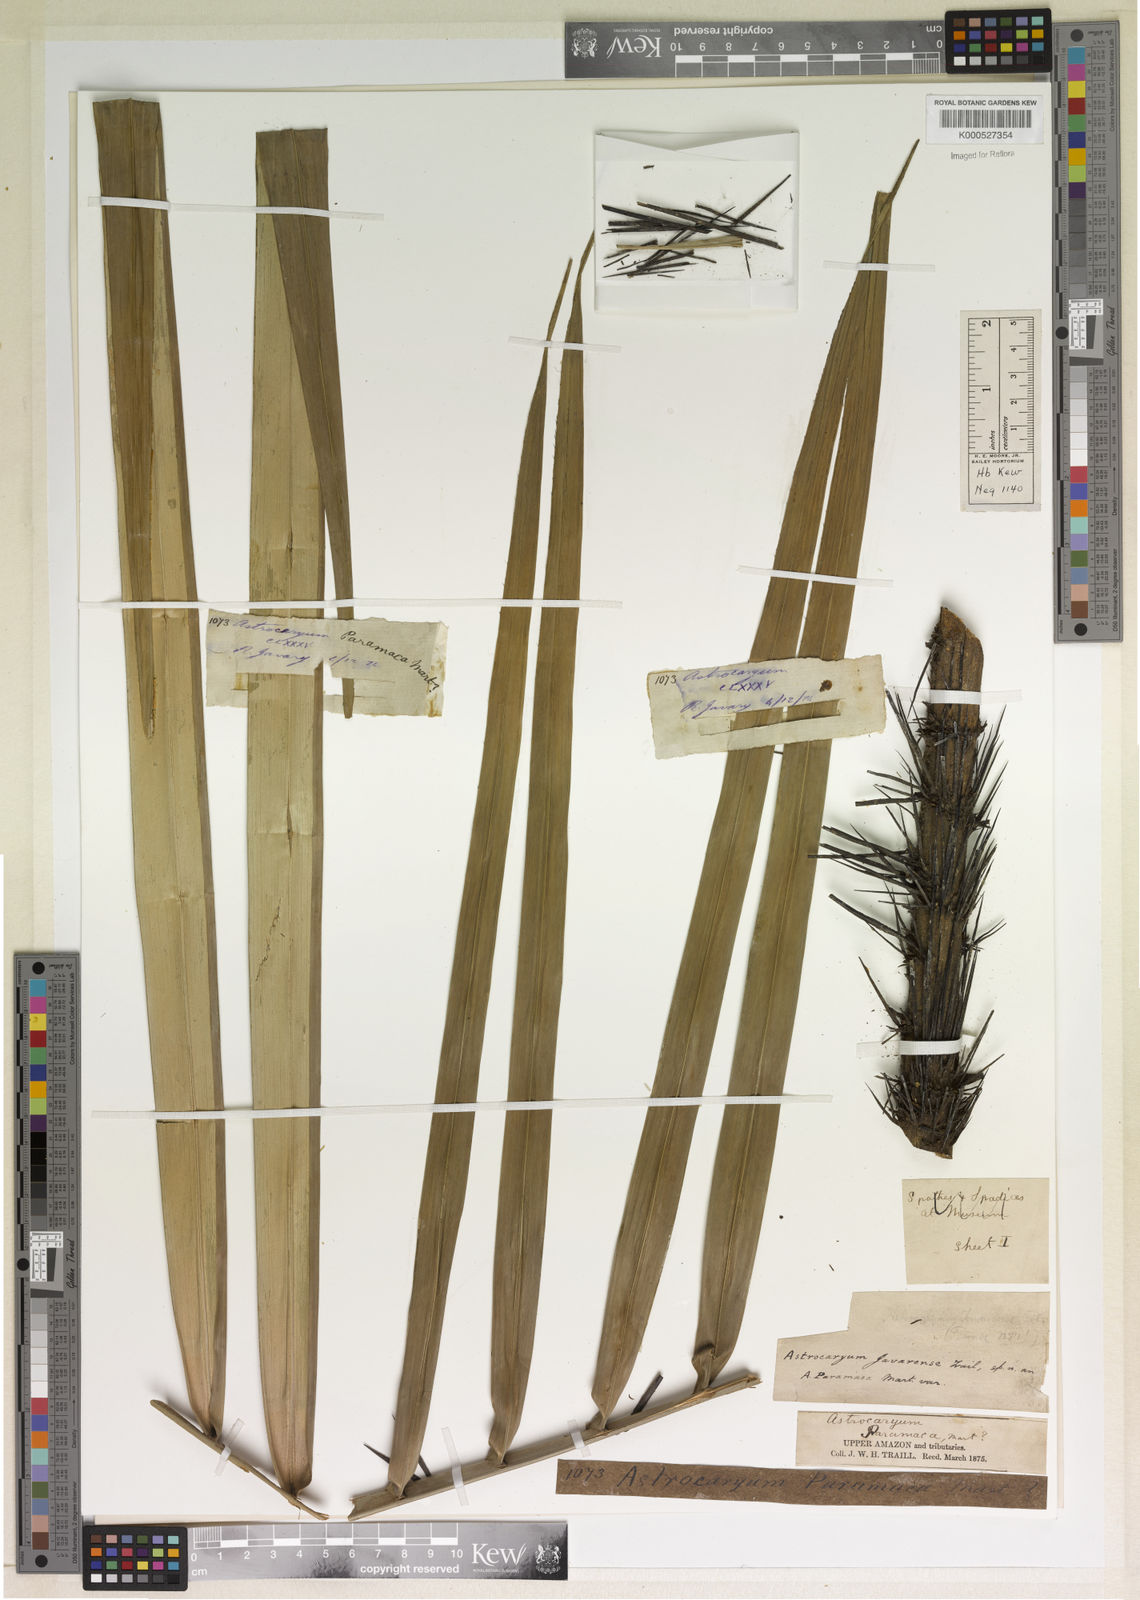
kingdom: Plantae
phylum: Tracheophyta
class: Liliopsida
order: Arecales
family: Arecaceae
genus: Astrocaryum
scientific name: Astrocaryum javarense
